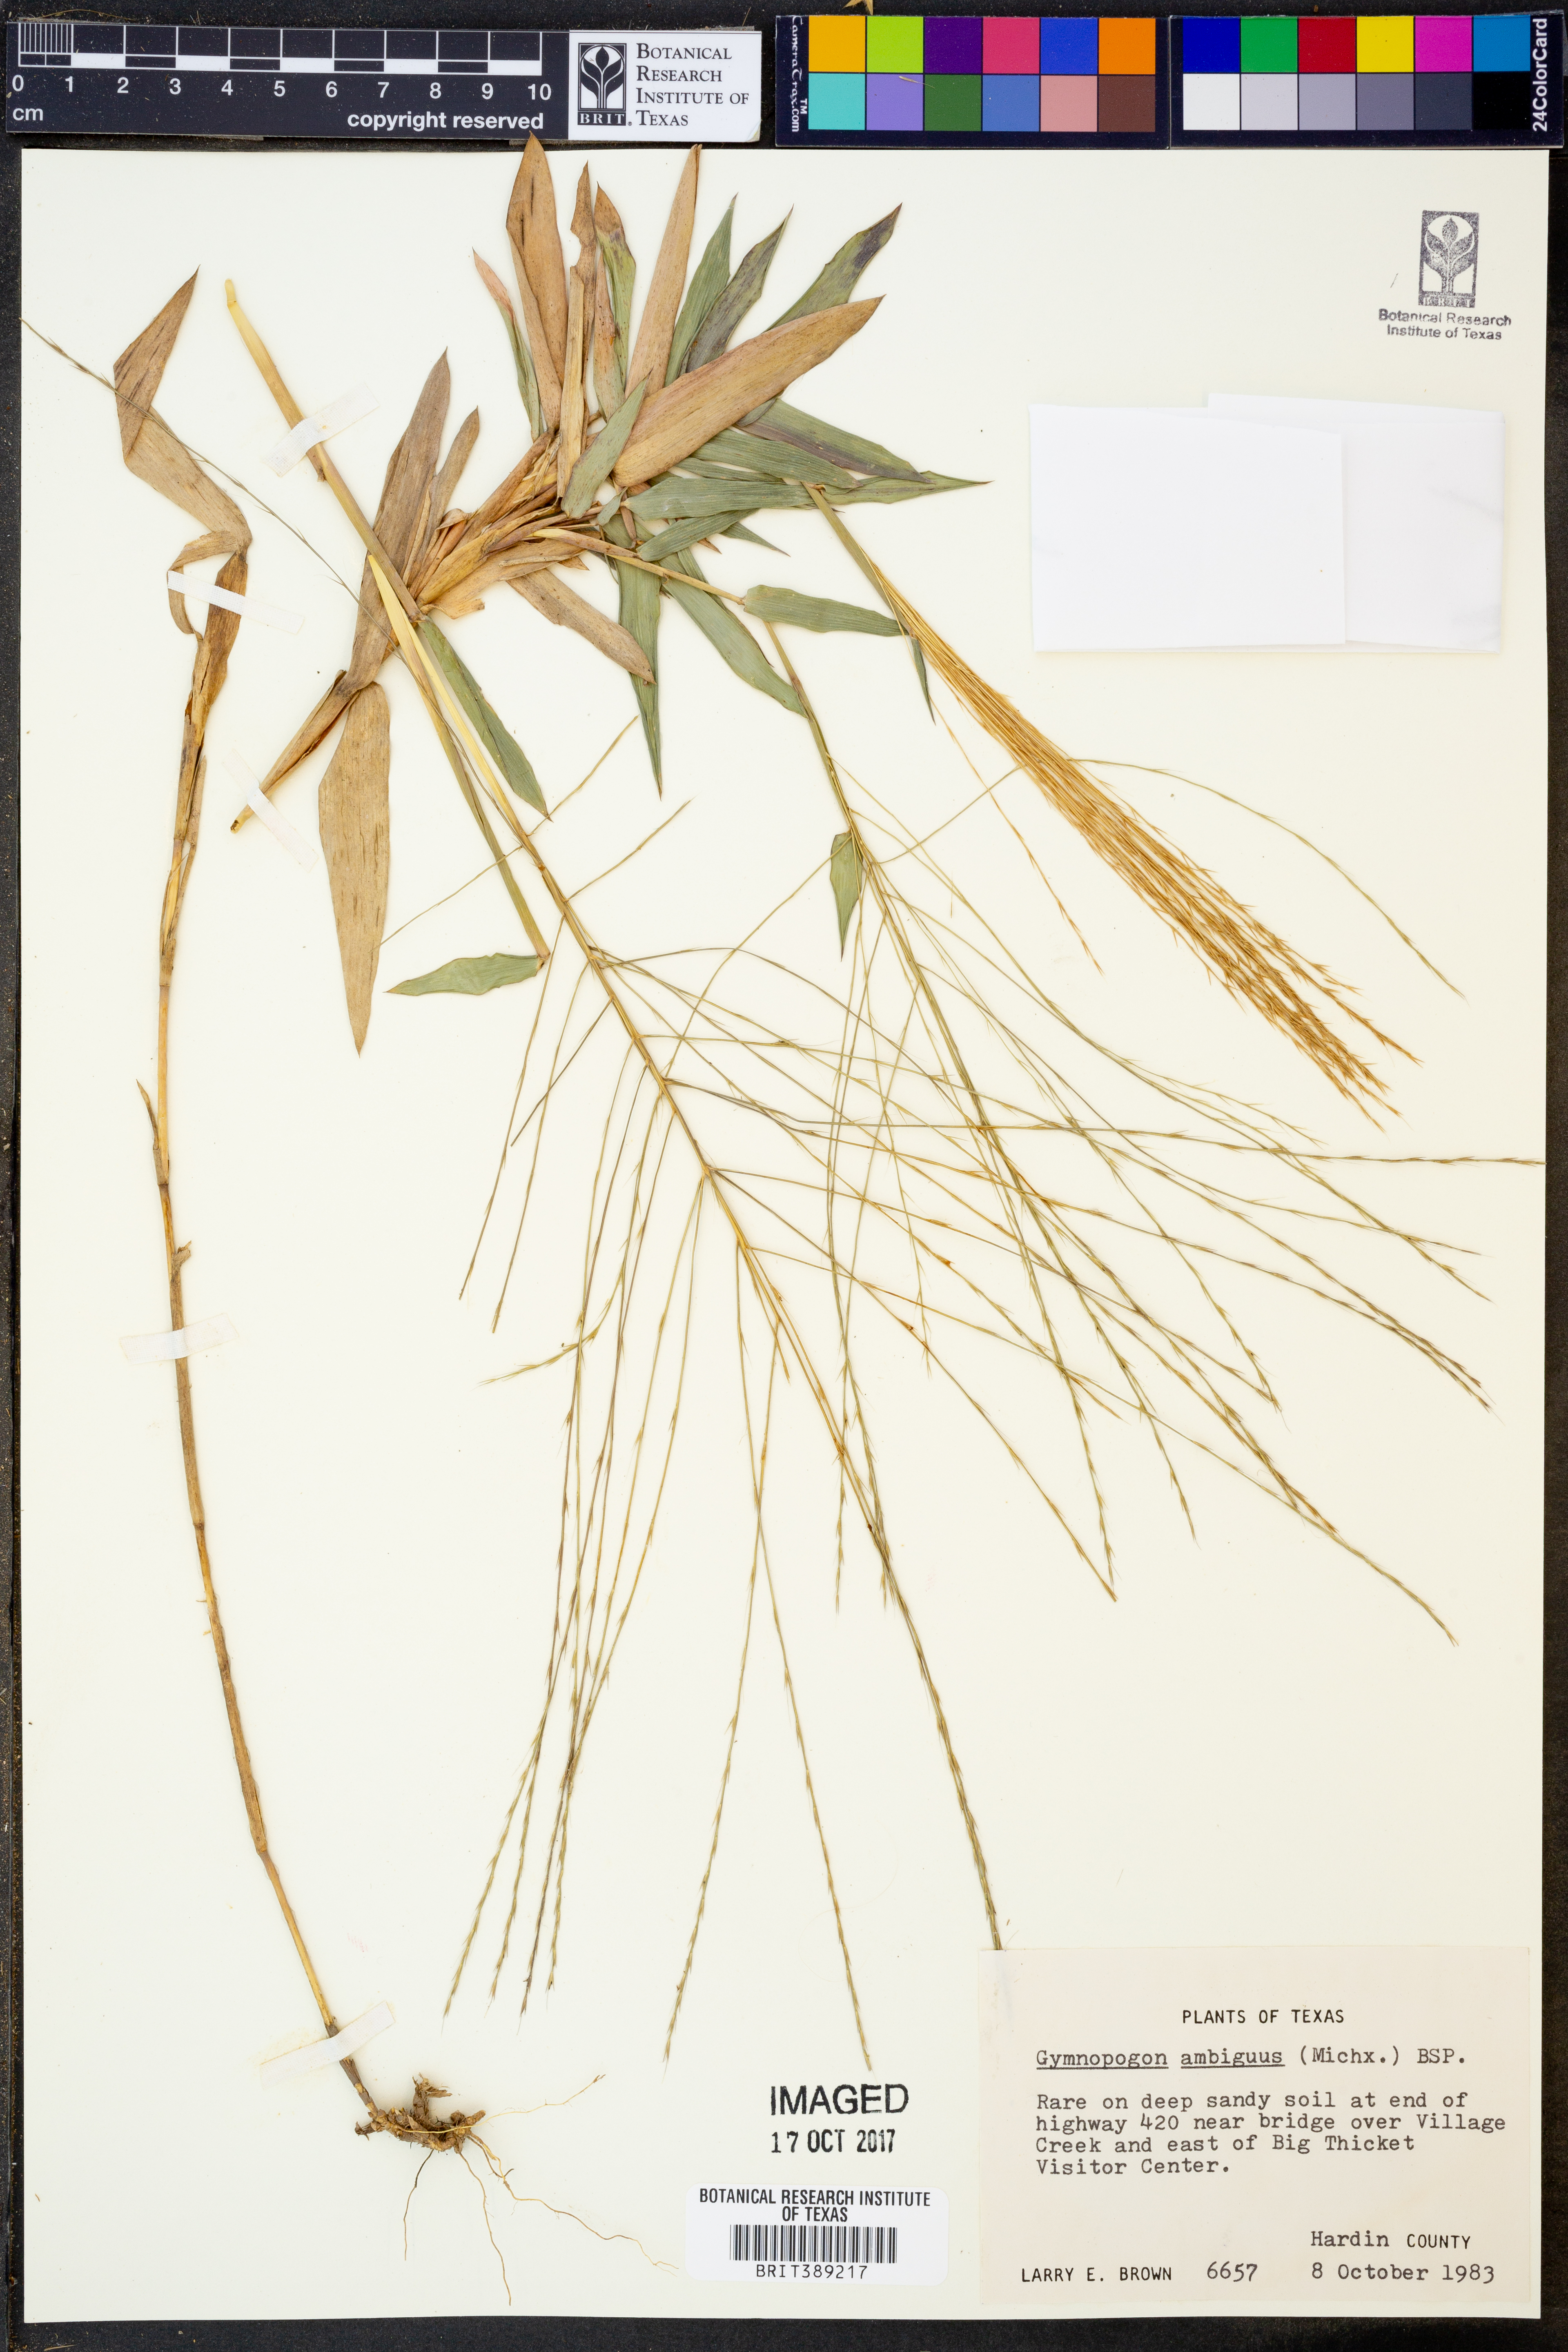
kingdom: Plantae
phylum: Tracheophyta
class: Liliopsida
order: Poales
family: Poaceae
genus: Gymnopogon
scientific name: Gymnopogon ambiguus
